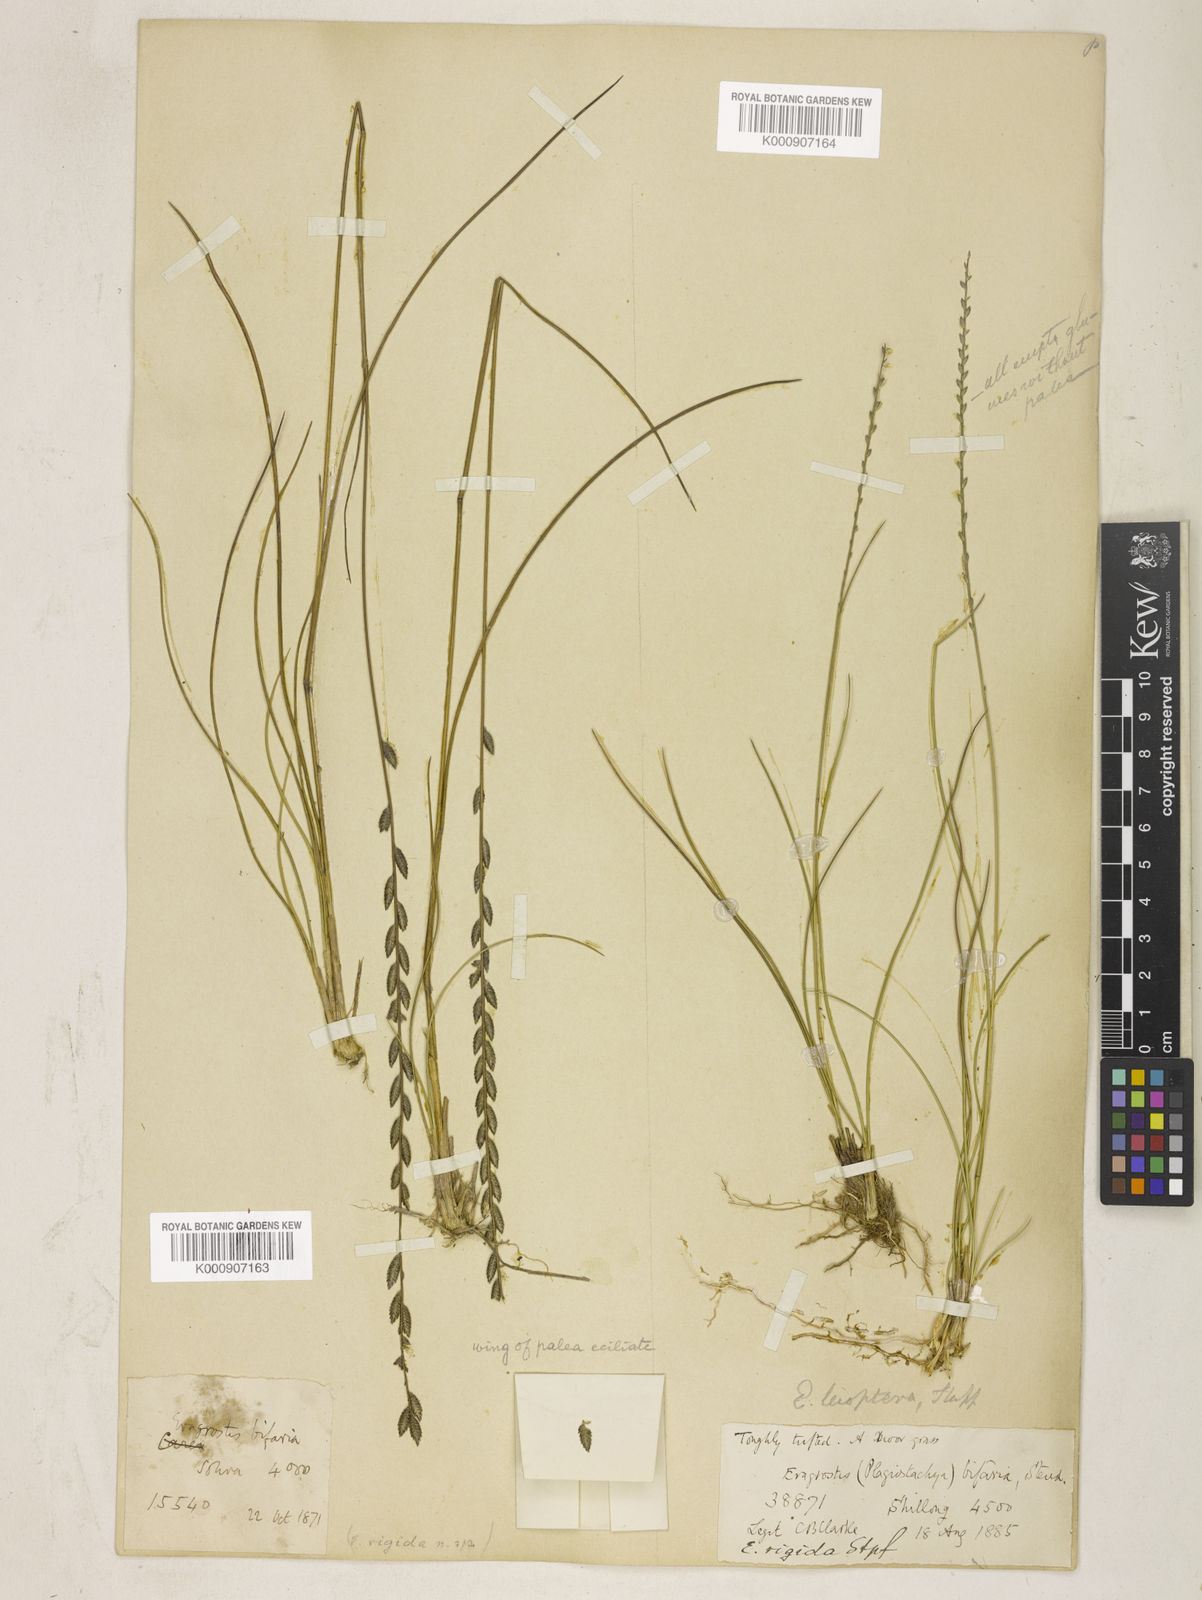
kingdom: Plantae
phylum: Tracheophyta
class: Liliopsida
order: Poales
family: Poaceae
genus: Eragrostiella
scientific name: Eragrostiella leioptera
